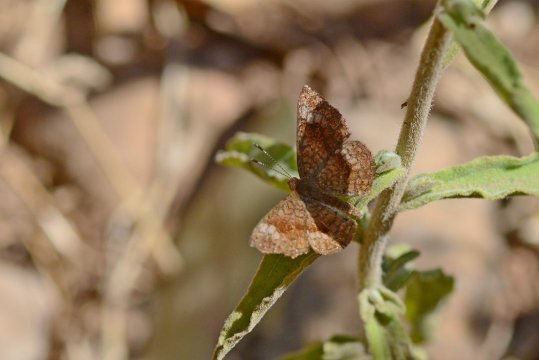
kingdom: Animalia
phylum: Arthropoda
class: Insecta
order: Lepidoptera
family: Lycaenidae
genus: Emesis
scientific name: Emesis tenedia
